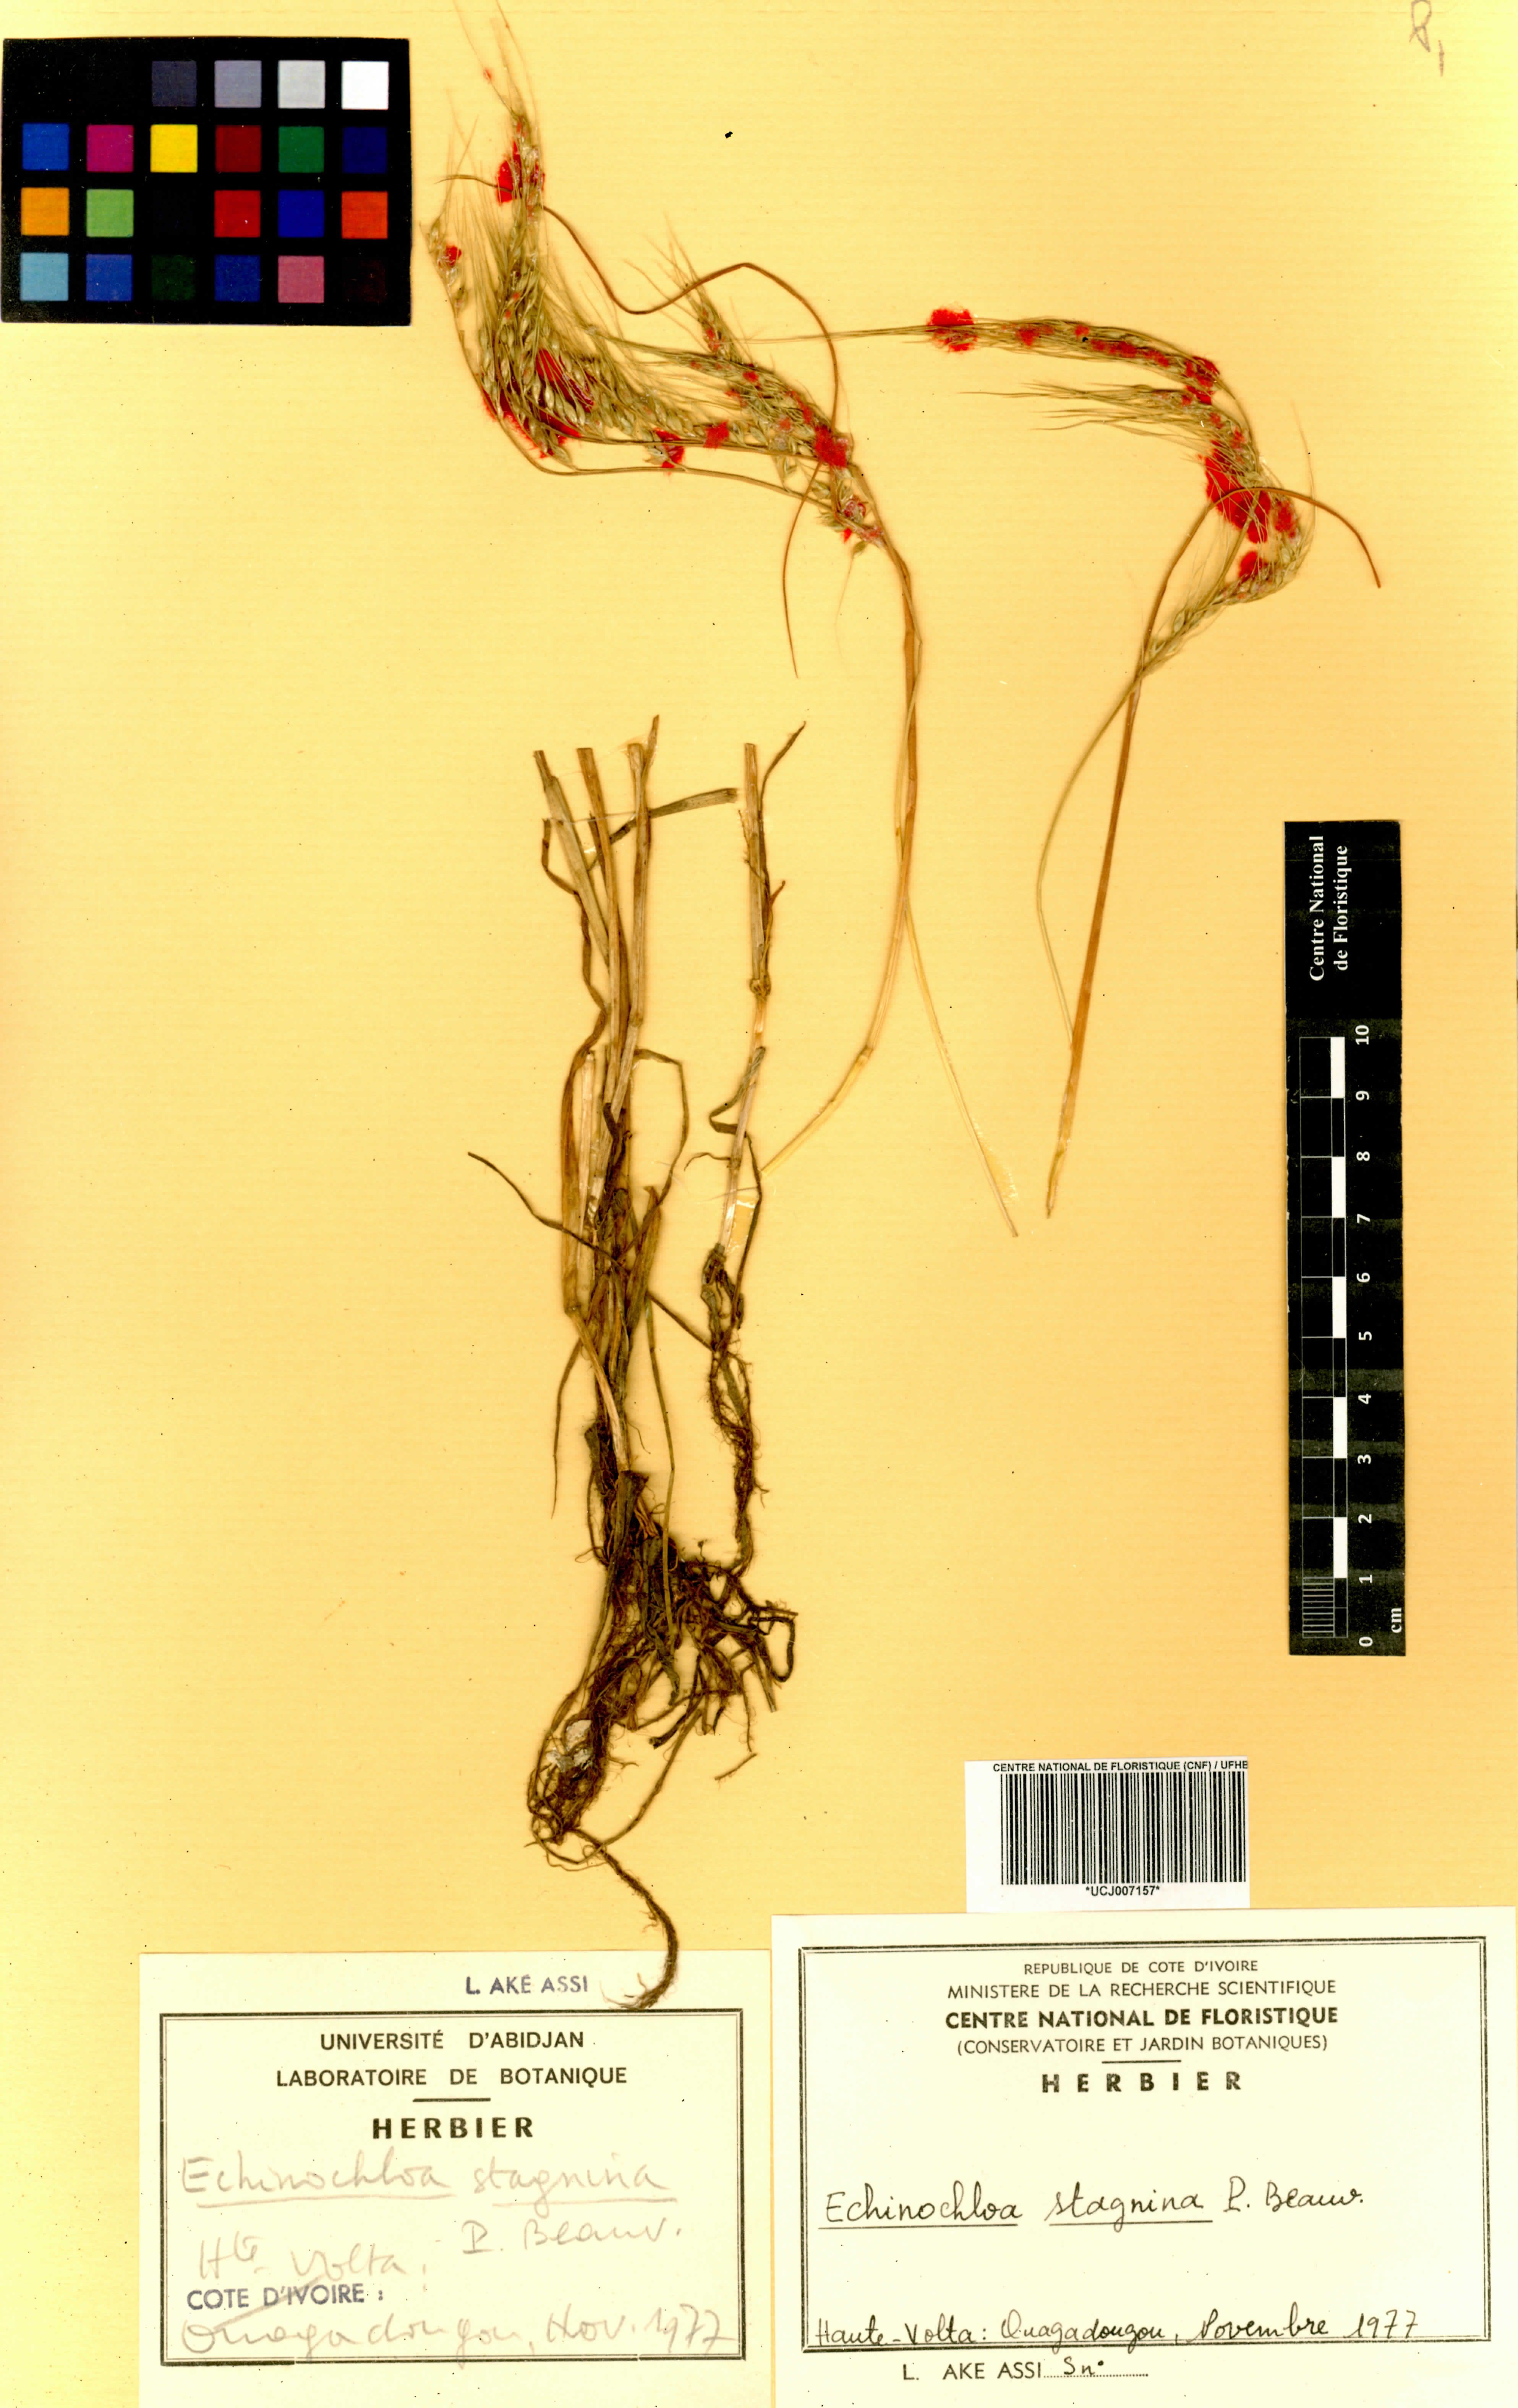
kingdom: Plantae
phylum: Tracheophyta
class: Liliopsida
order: Poales
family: Poaceae
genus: Echinochloa
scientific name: Echinochloa stagnina
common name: Burgu grass
